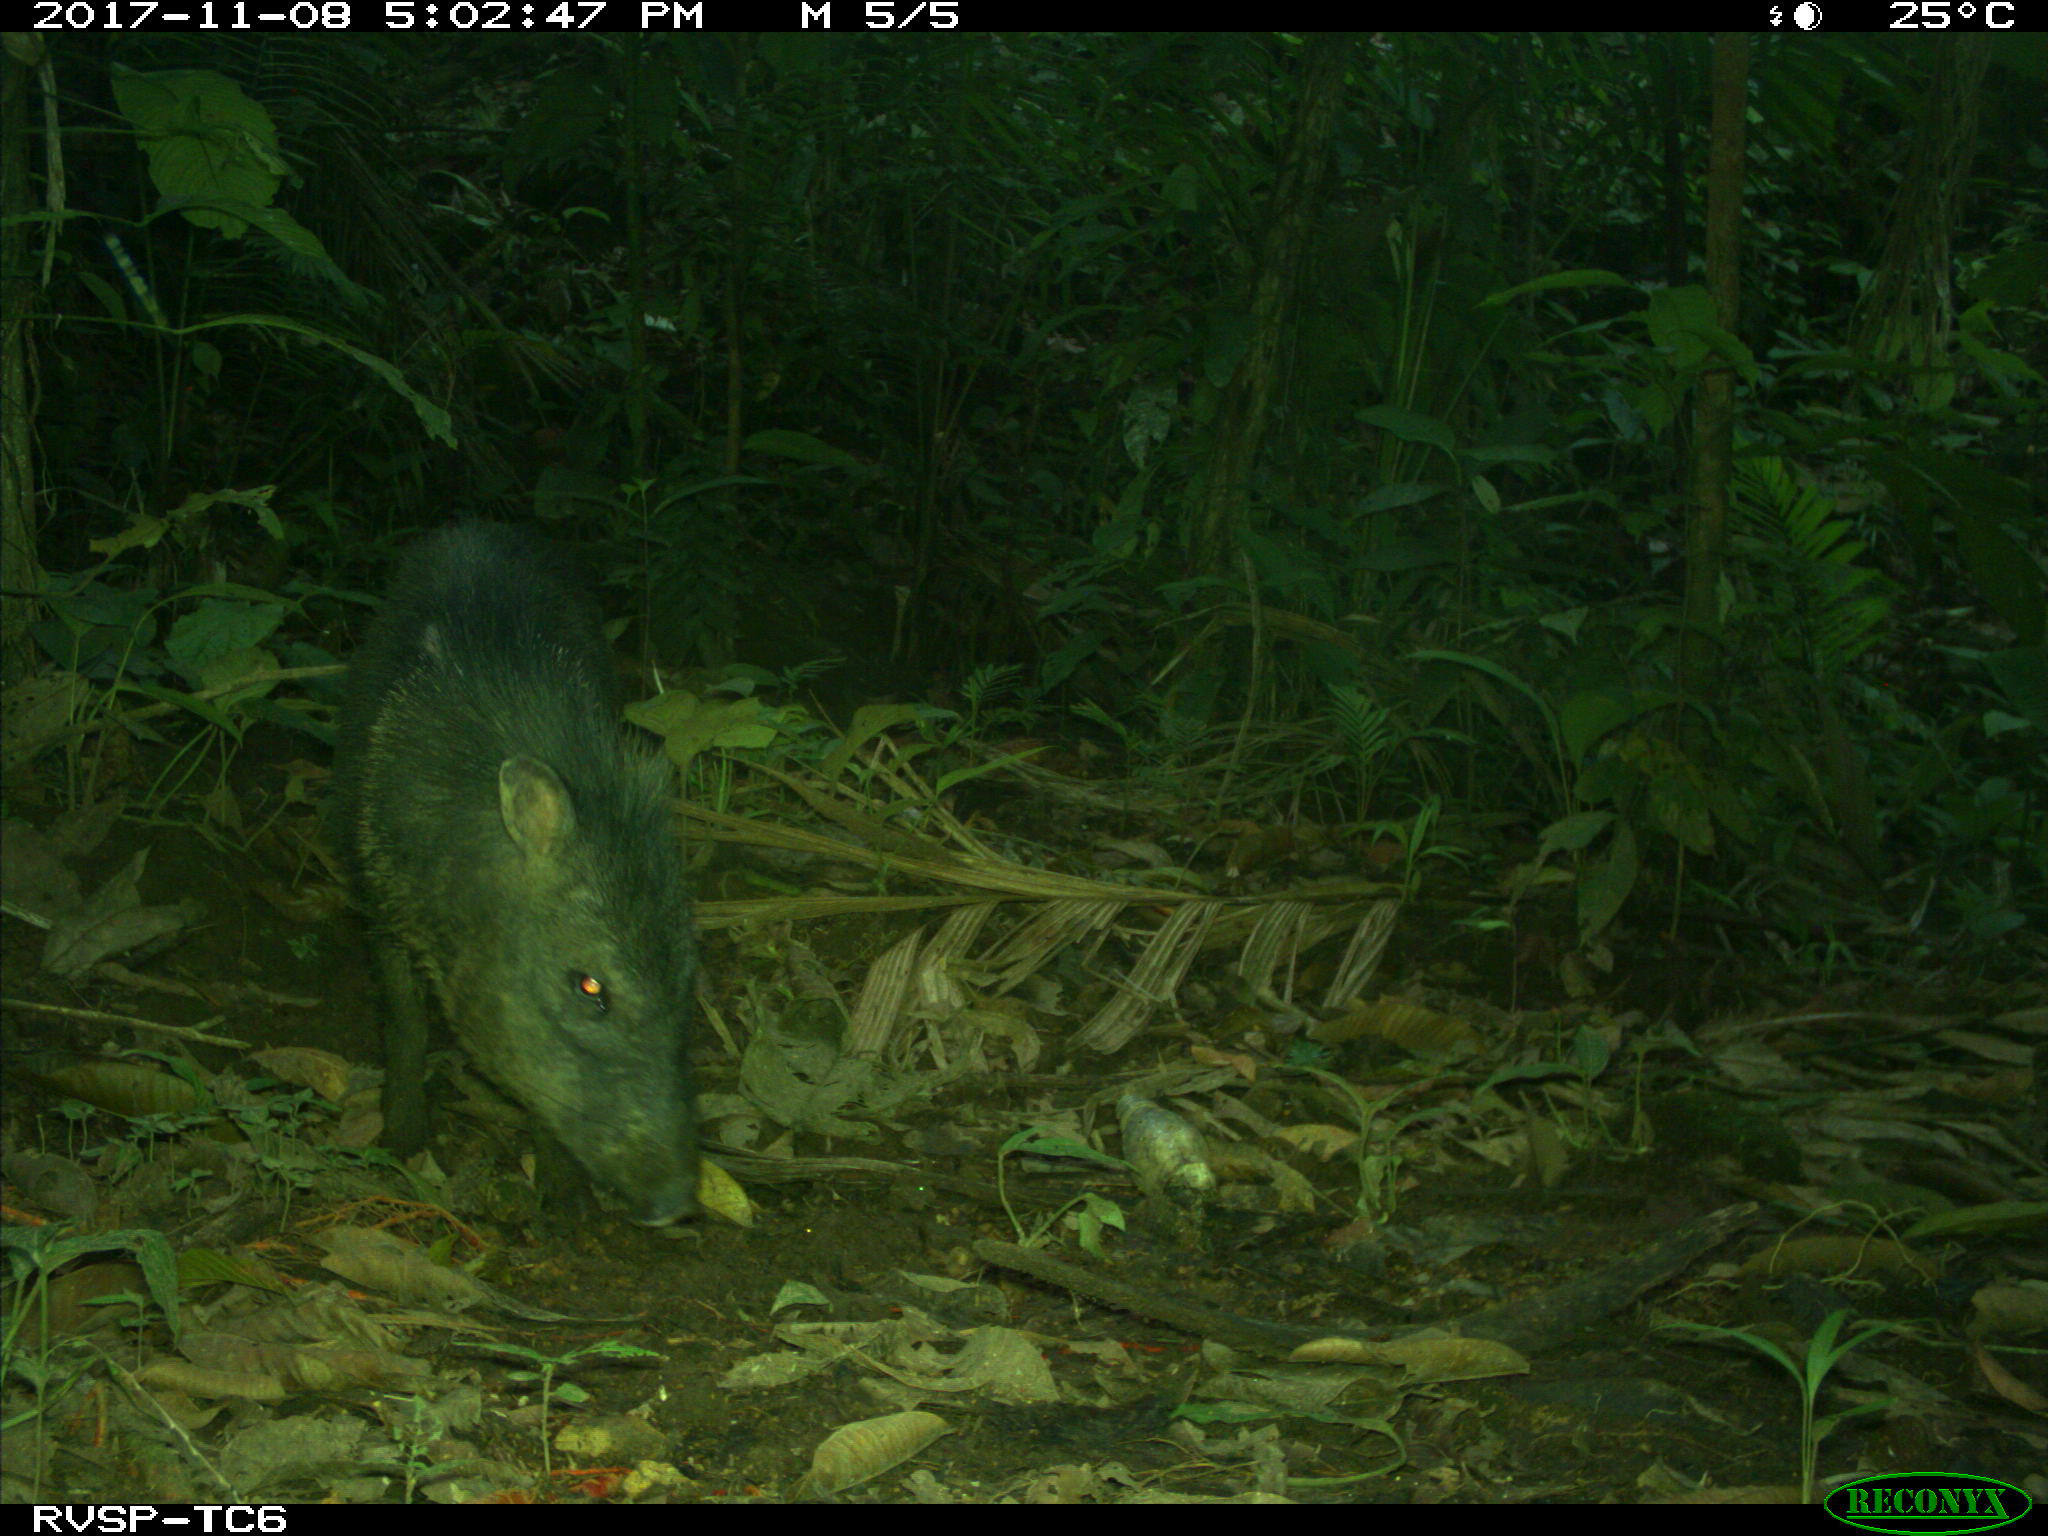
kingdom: Animalia
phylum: Chordata
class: Mammalia
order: Artiodactyla
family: Tayassuidae
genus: Pecari
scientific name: Pecari tajacu
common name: Collared peccary
